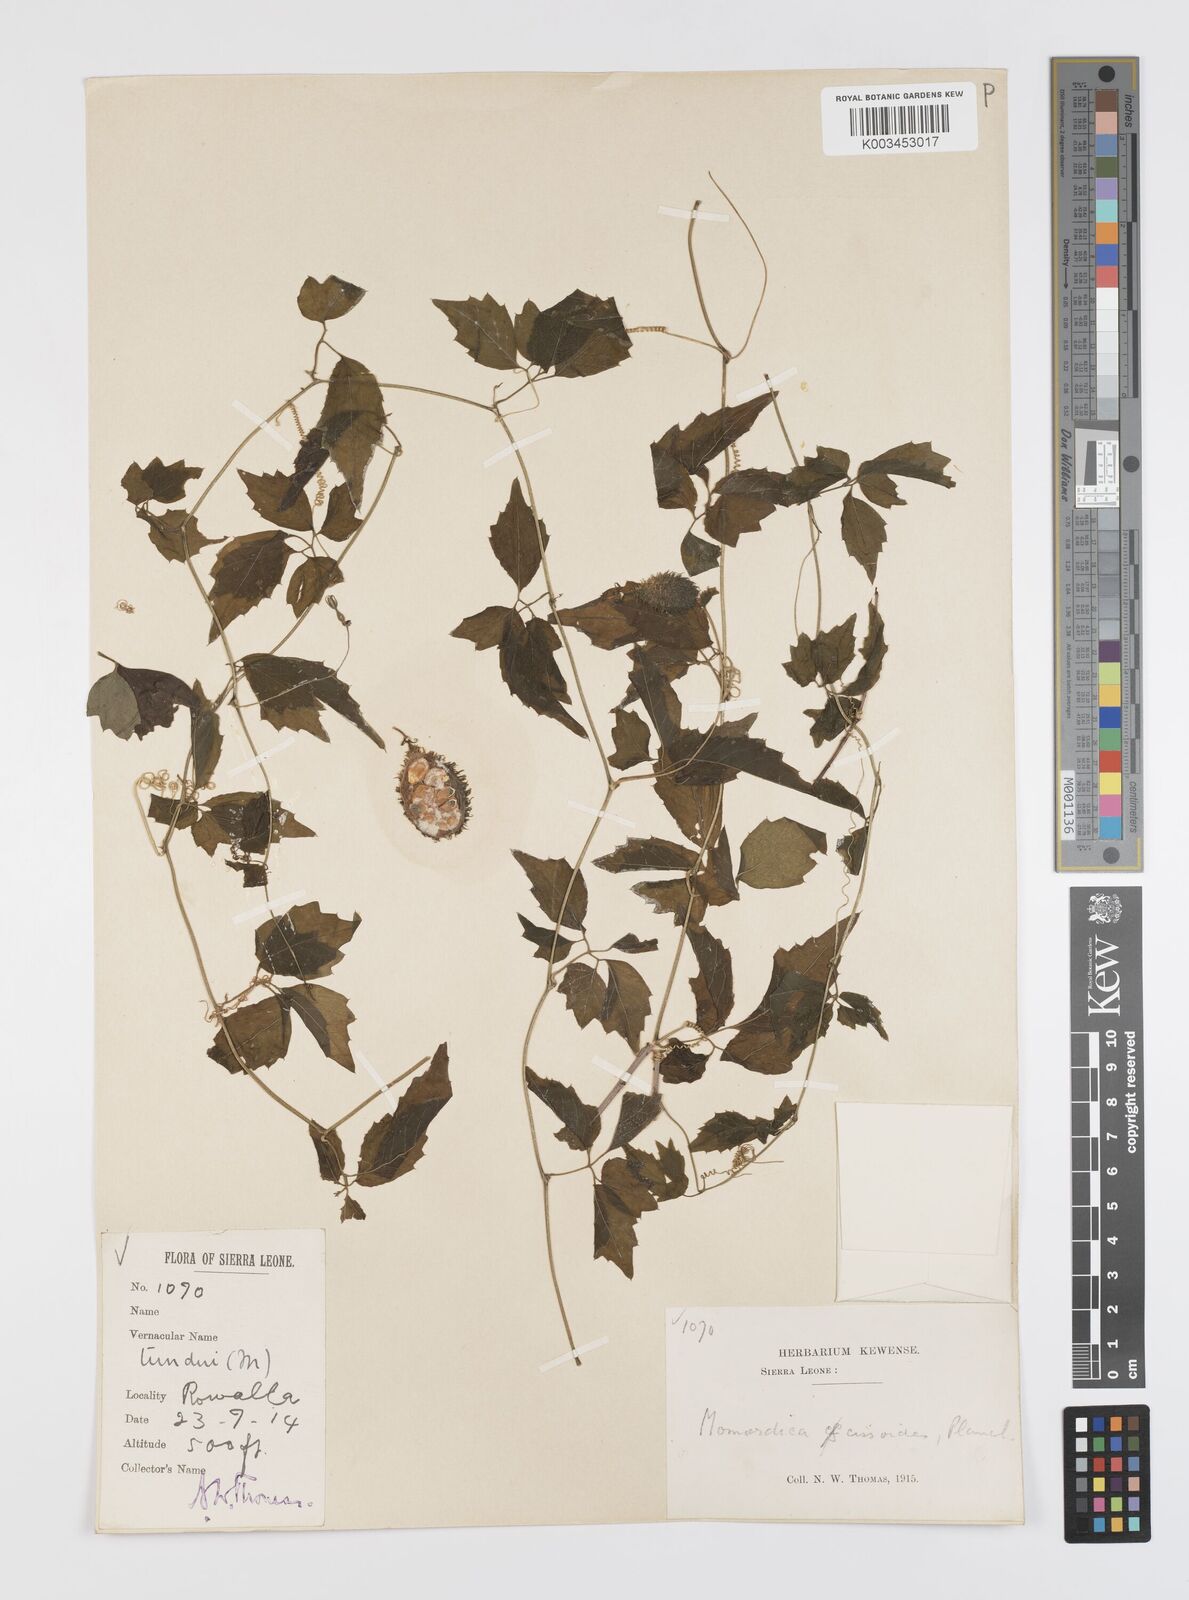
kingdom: Plantae
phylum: Tracheophyta
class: Magnoliopsida
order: Cucurbitales
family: Cucurbitaceae
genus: Momordica
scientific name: Momordica cissoides
